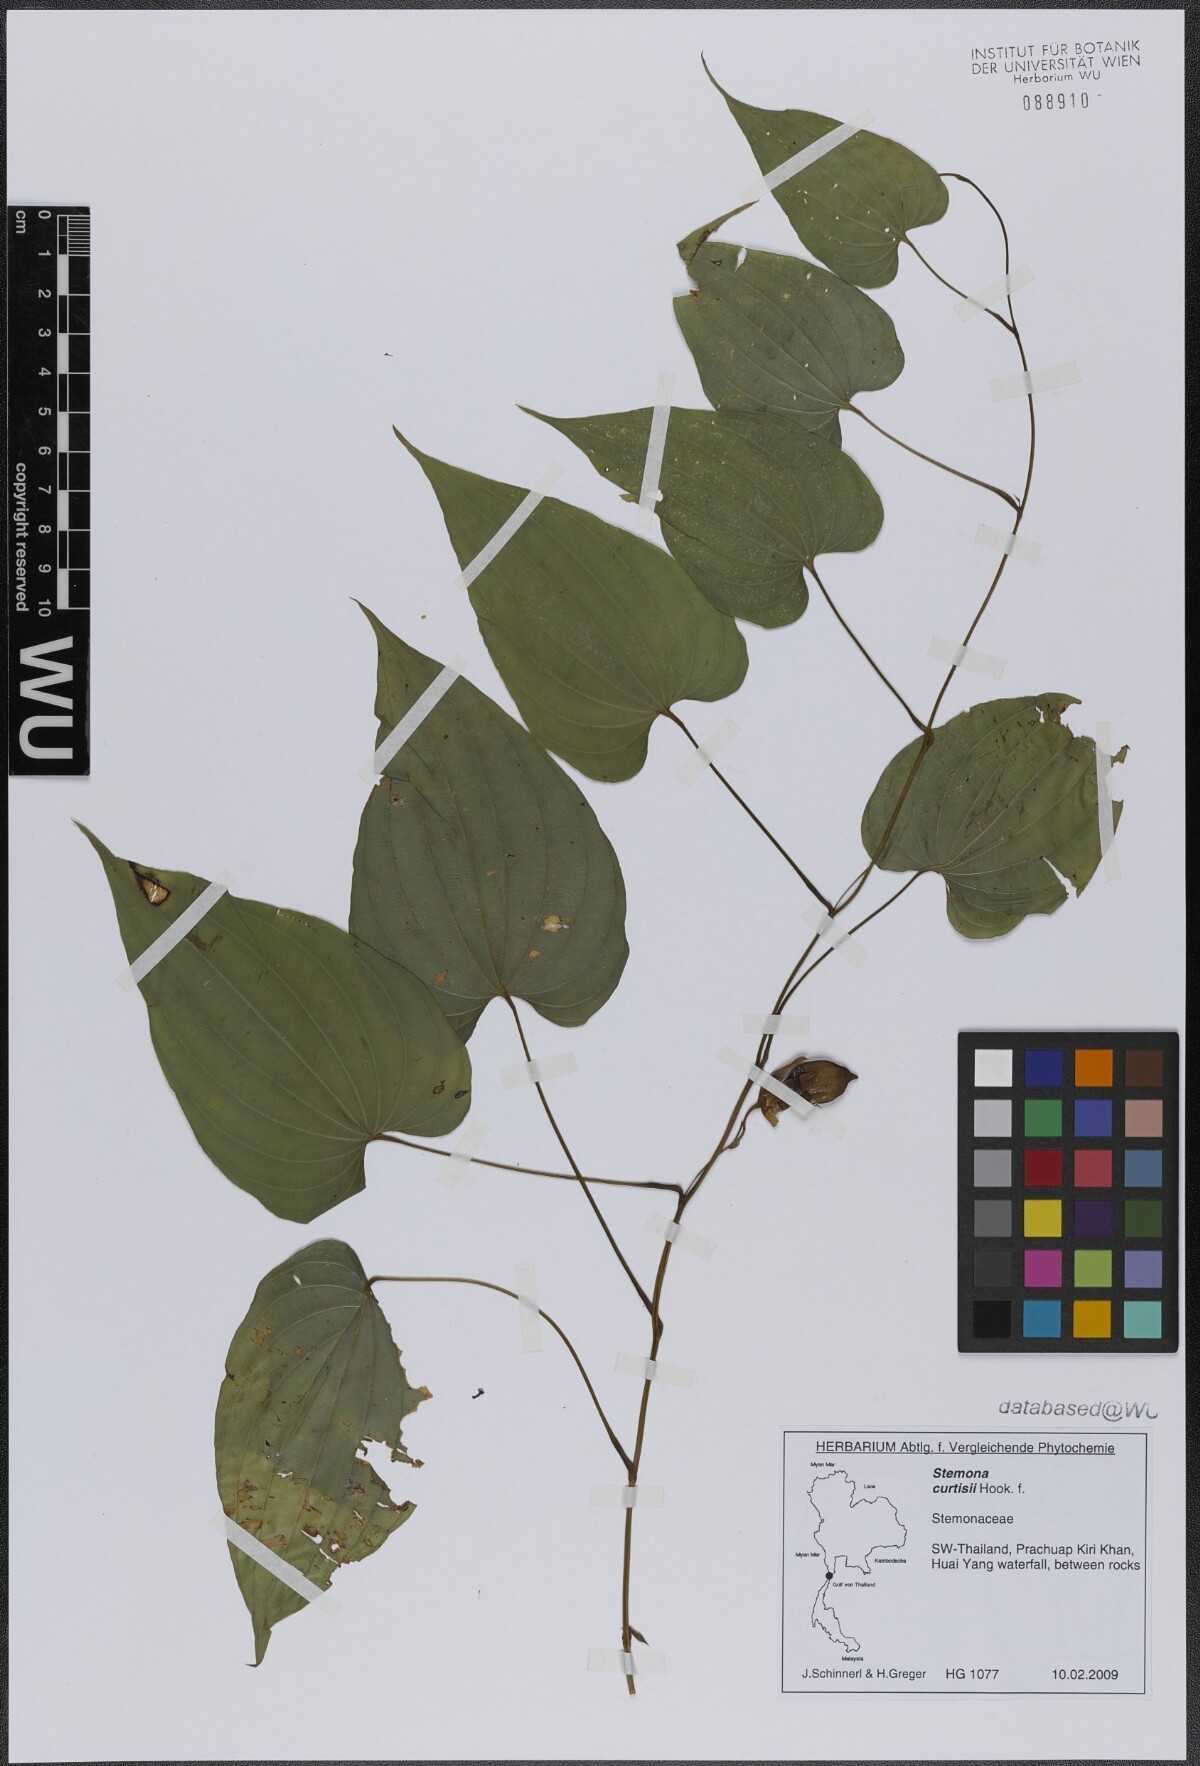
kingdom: Plantae
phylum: Tracheophyta
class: Liliopsida
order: Pandanales
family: Stemonaceae
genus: Stemona
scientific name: Stemona curtisii
